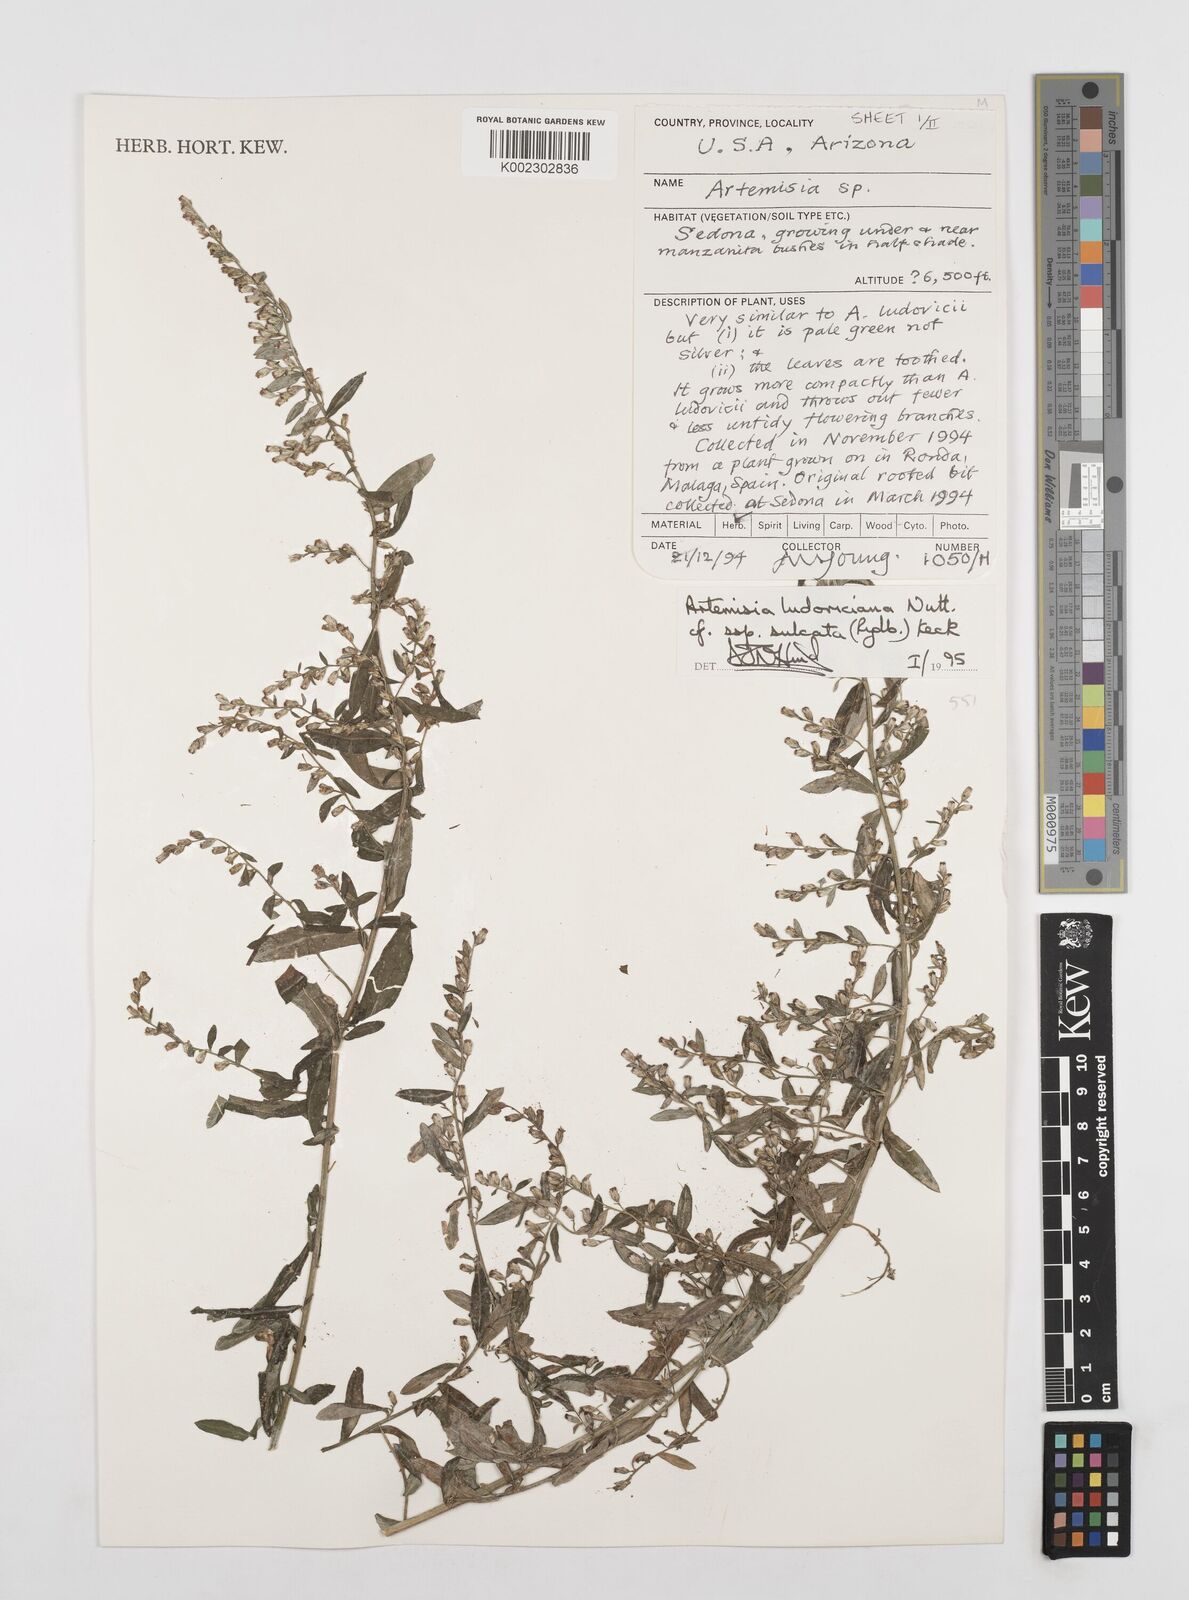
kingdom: Plantae
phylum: Tracheophyta
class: Magnoliopsida
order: Asterales
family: Asteraceae
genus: Artemisia
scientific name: Artemisia ludoviciana
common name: Western mugwort
